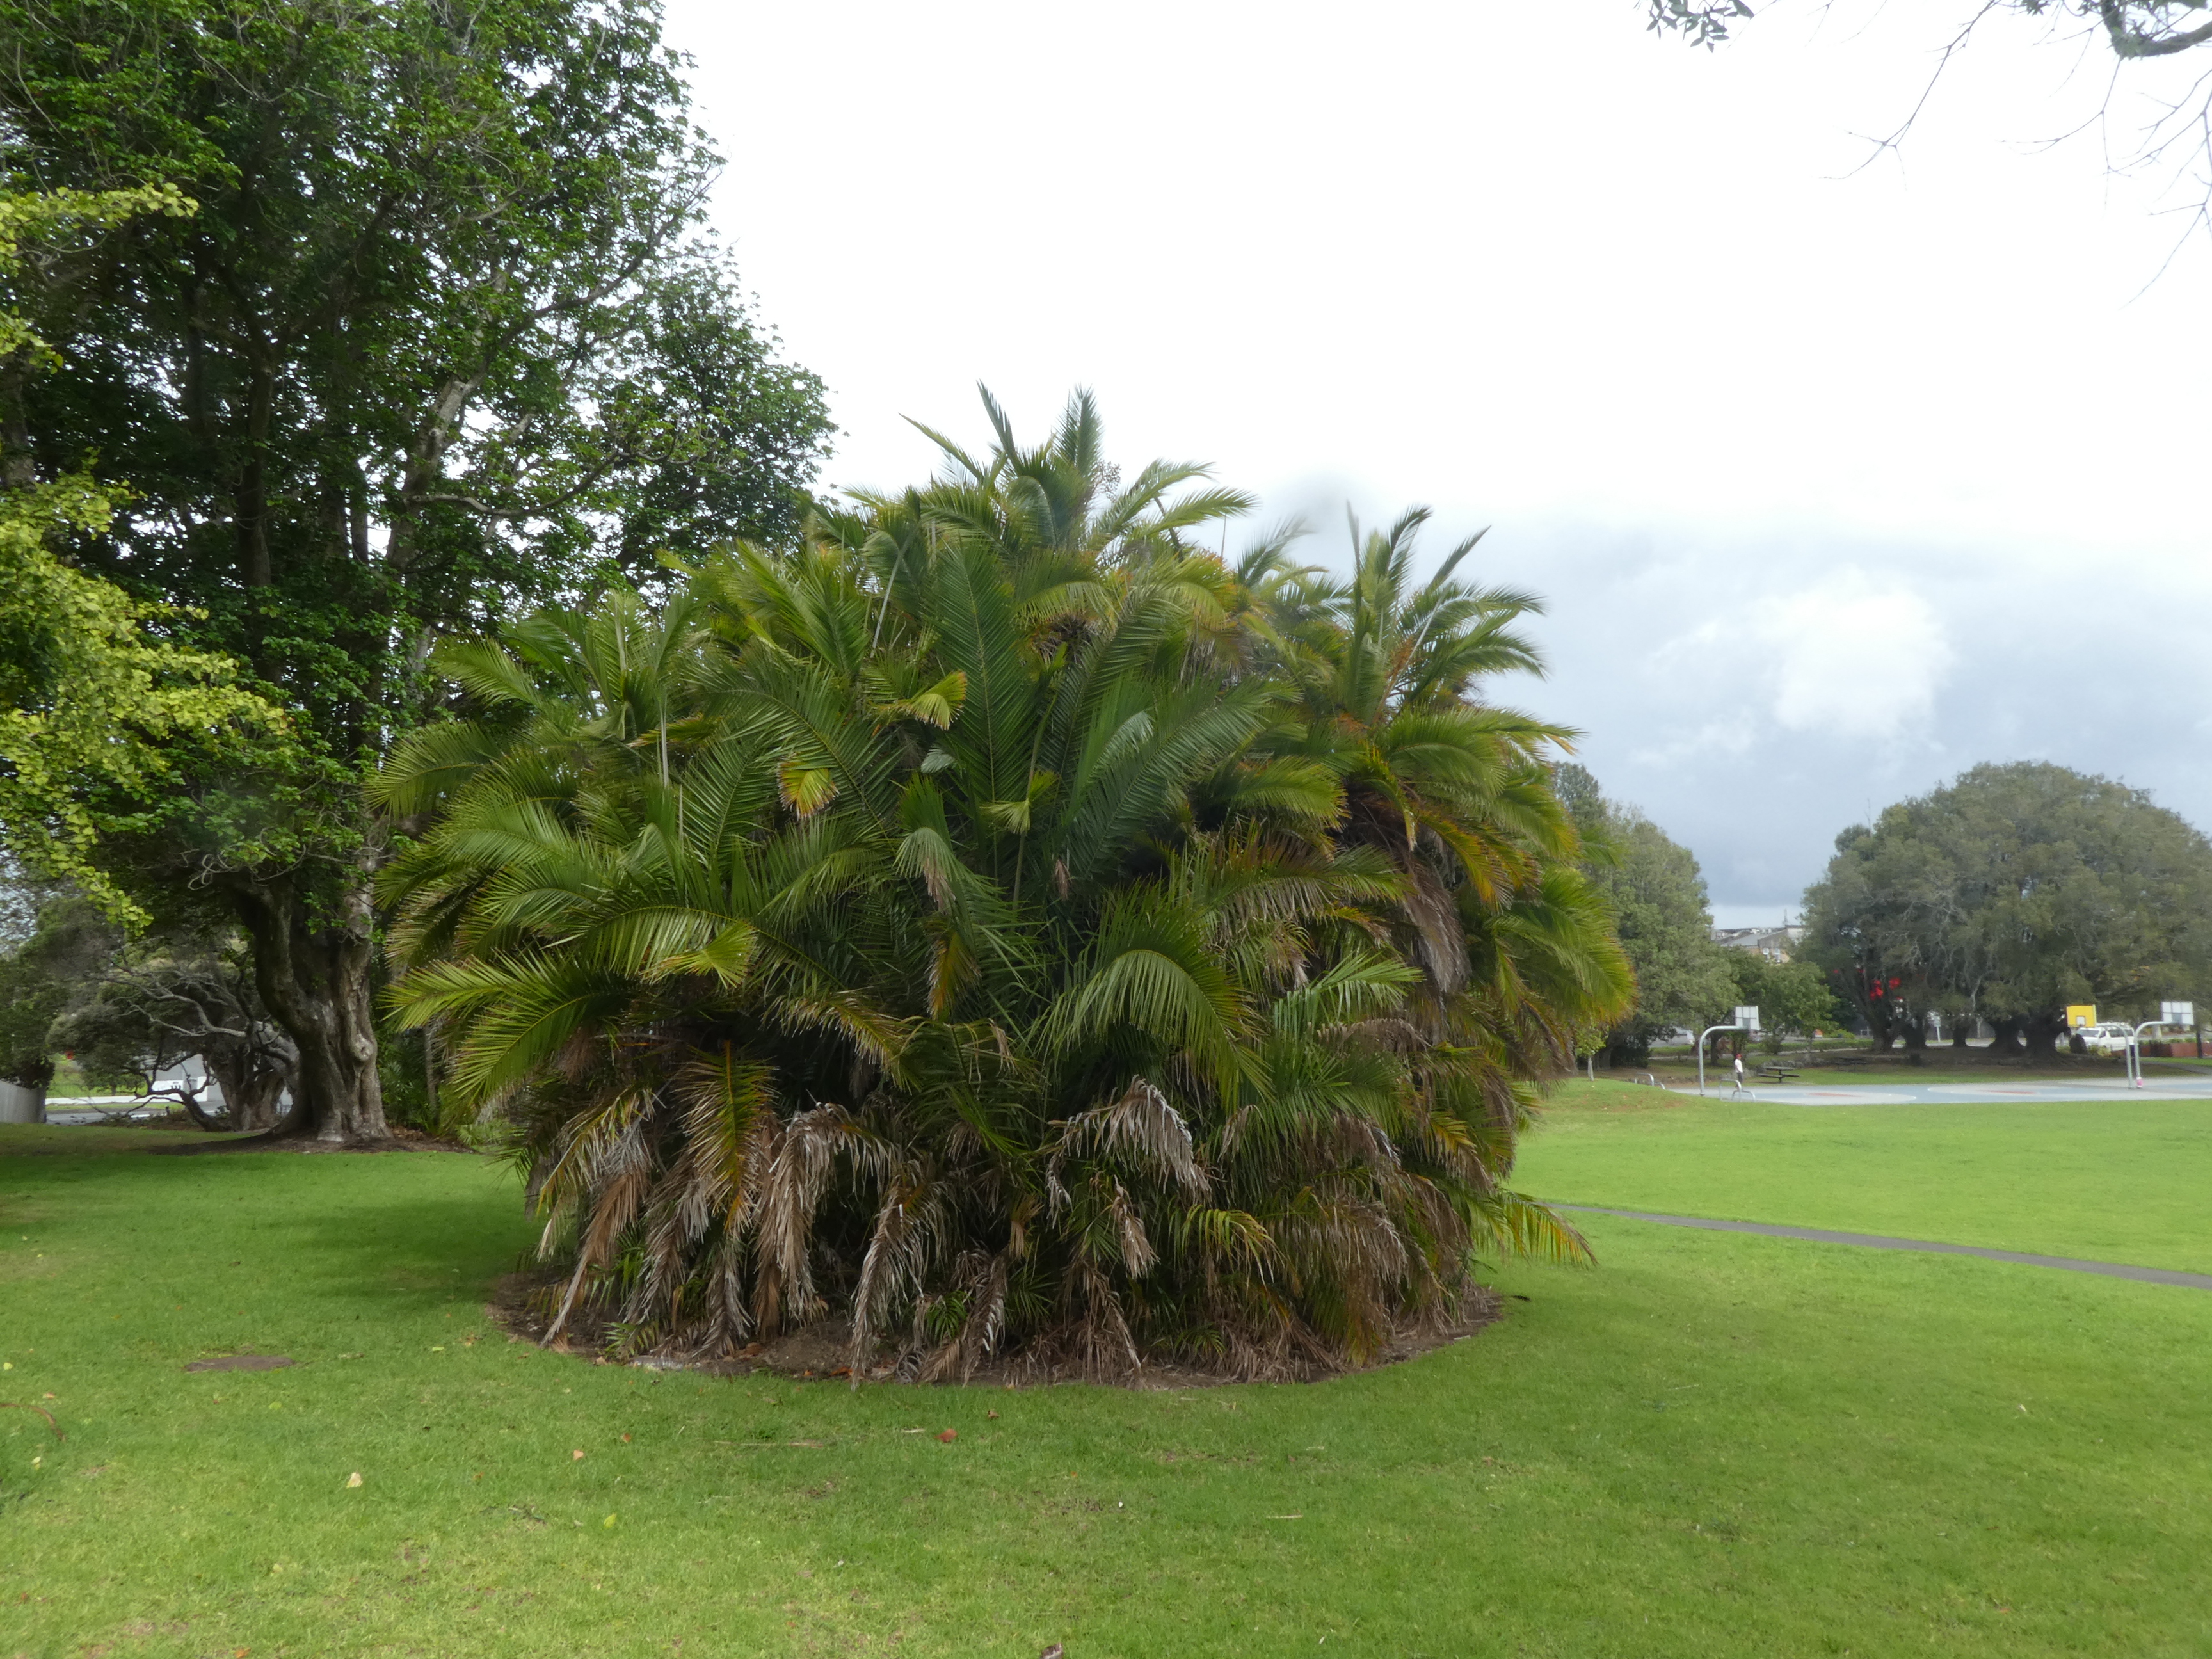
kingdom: Plantae
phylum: Tracheophyta
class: Liliopsida
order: Arecales
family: Arecaceae
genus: Phoenix
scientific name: Phoenix reclinata
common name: Senegal date palm
